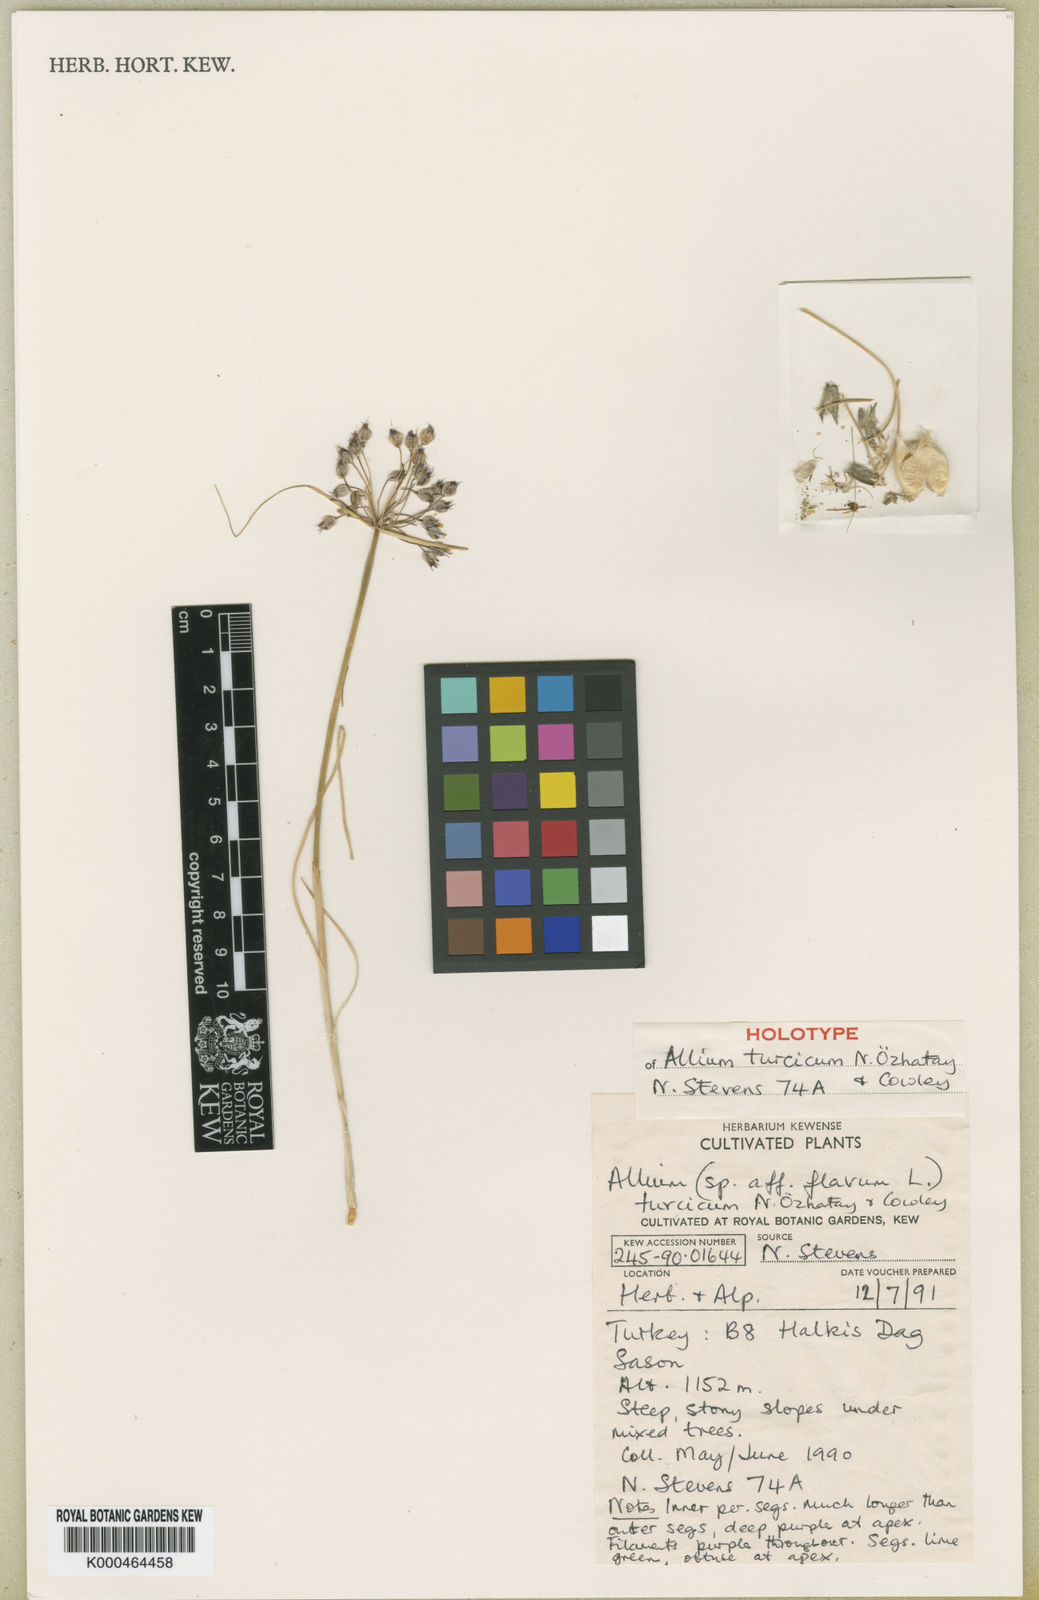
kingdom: Plantae
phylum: Tracheophyta
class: Liliopsida
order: Asparagales
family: Amaryllidaceae
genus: Allium
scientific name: Allium
